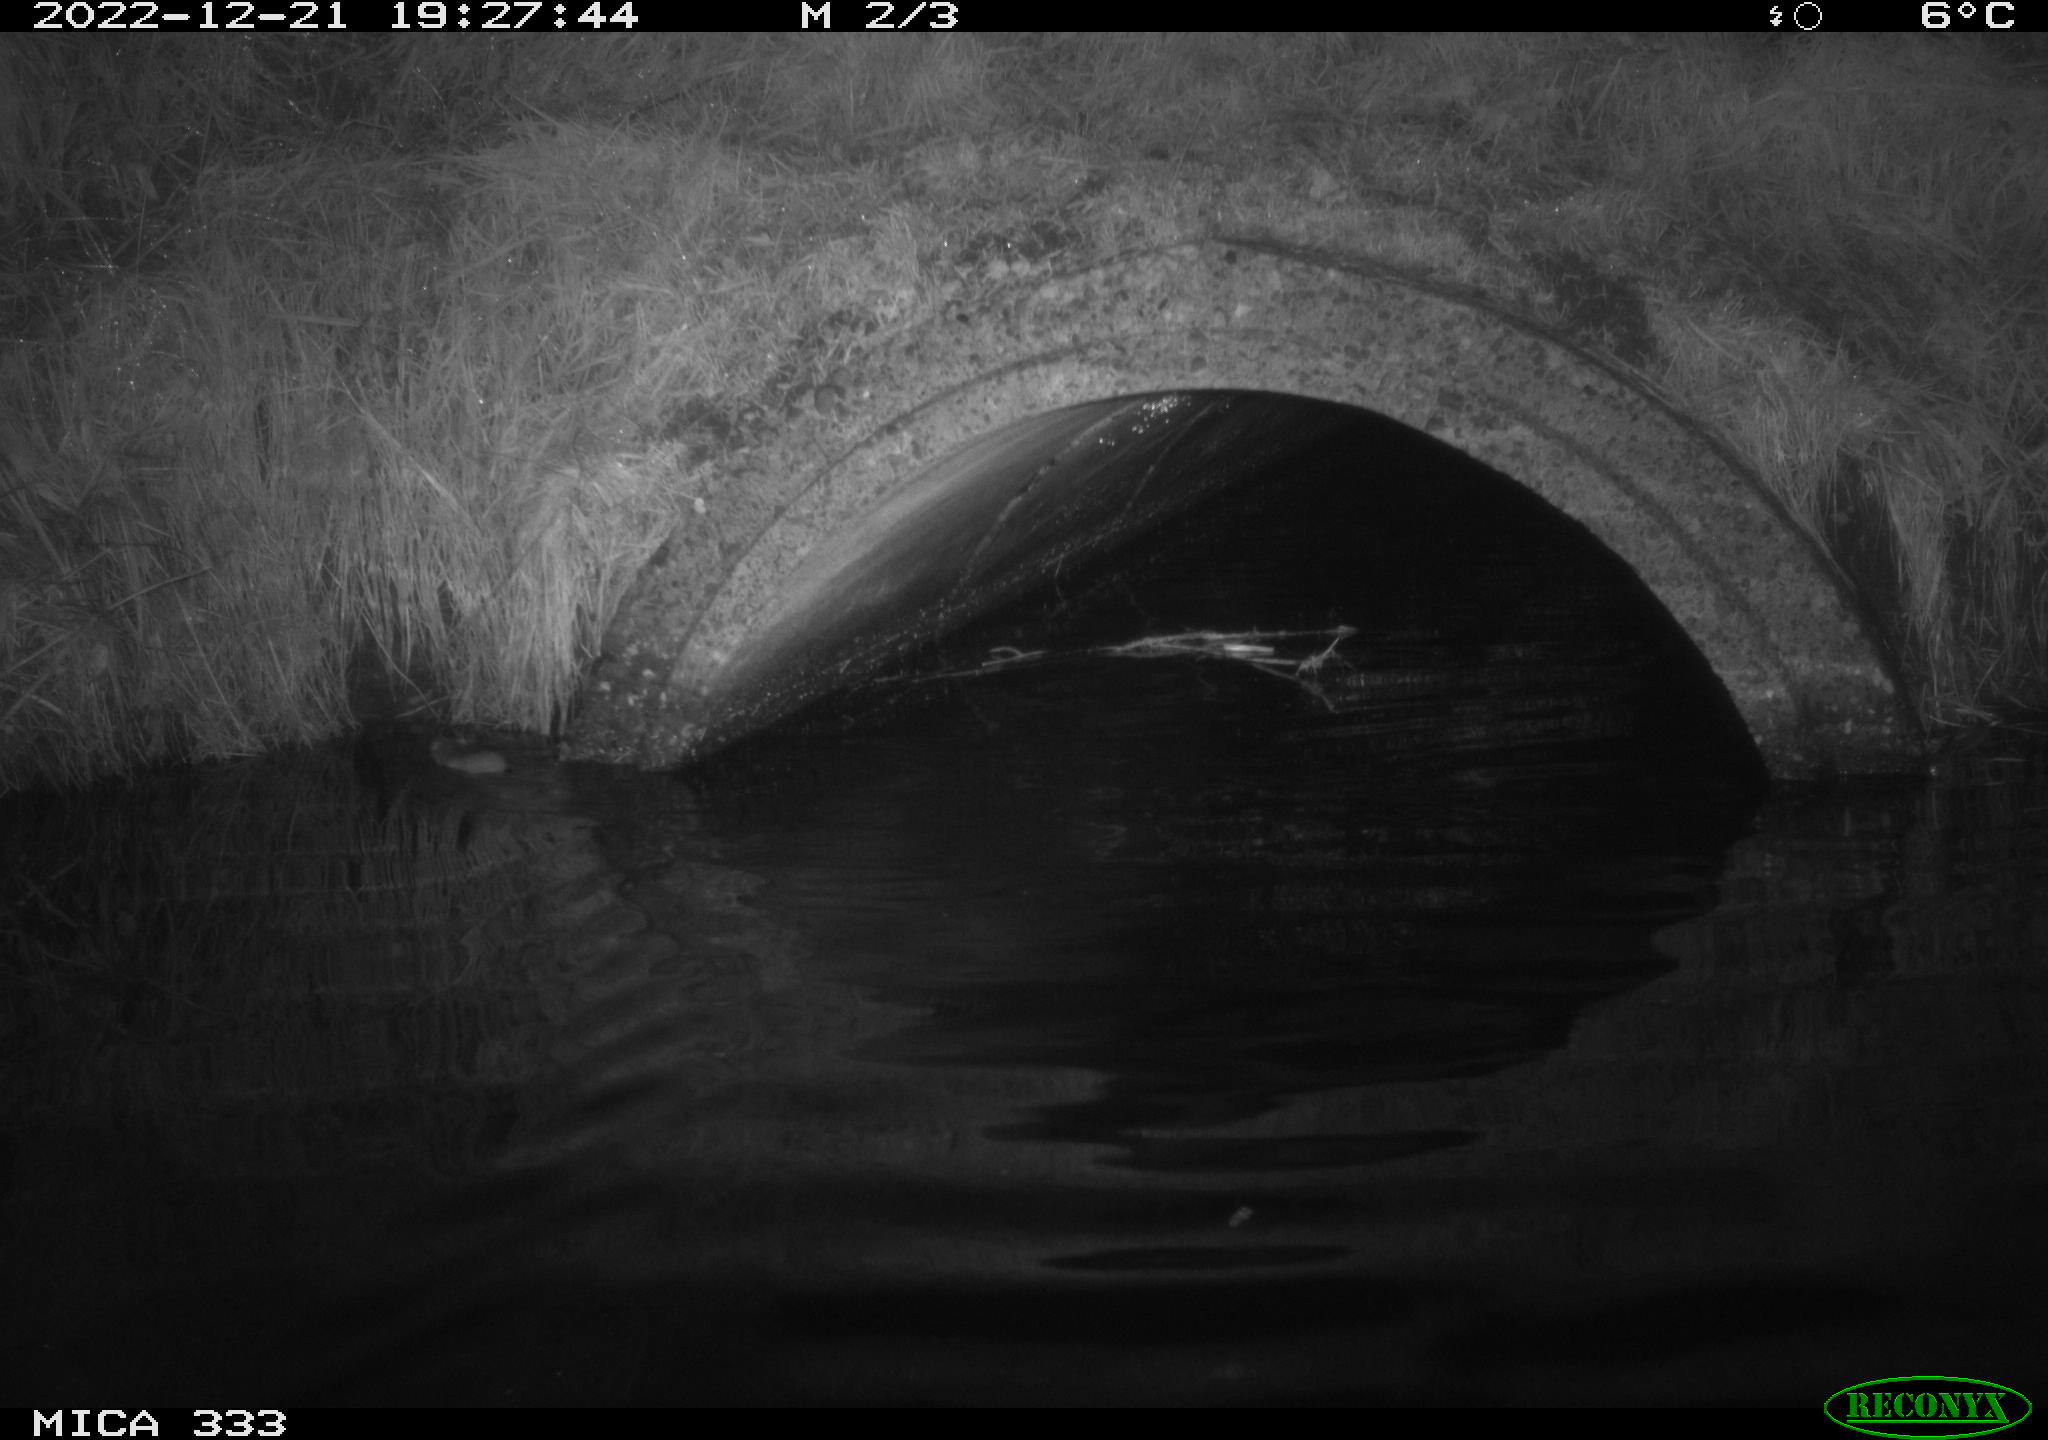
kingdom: Animalia
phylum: Chordata
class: Mammalia
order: Rodentia
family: Muridae
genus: Rattus
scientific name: Rattus norvegicus
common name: Brown rat
